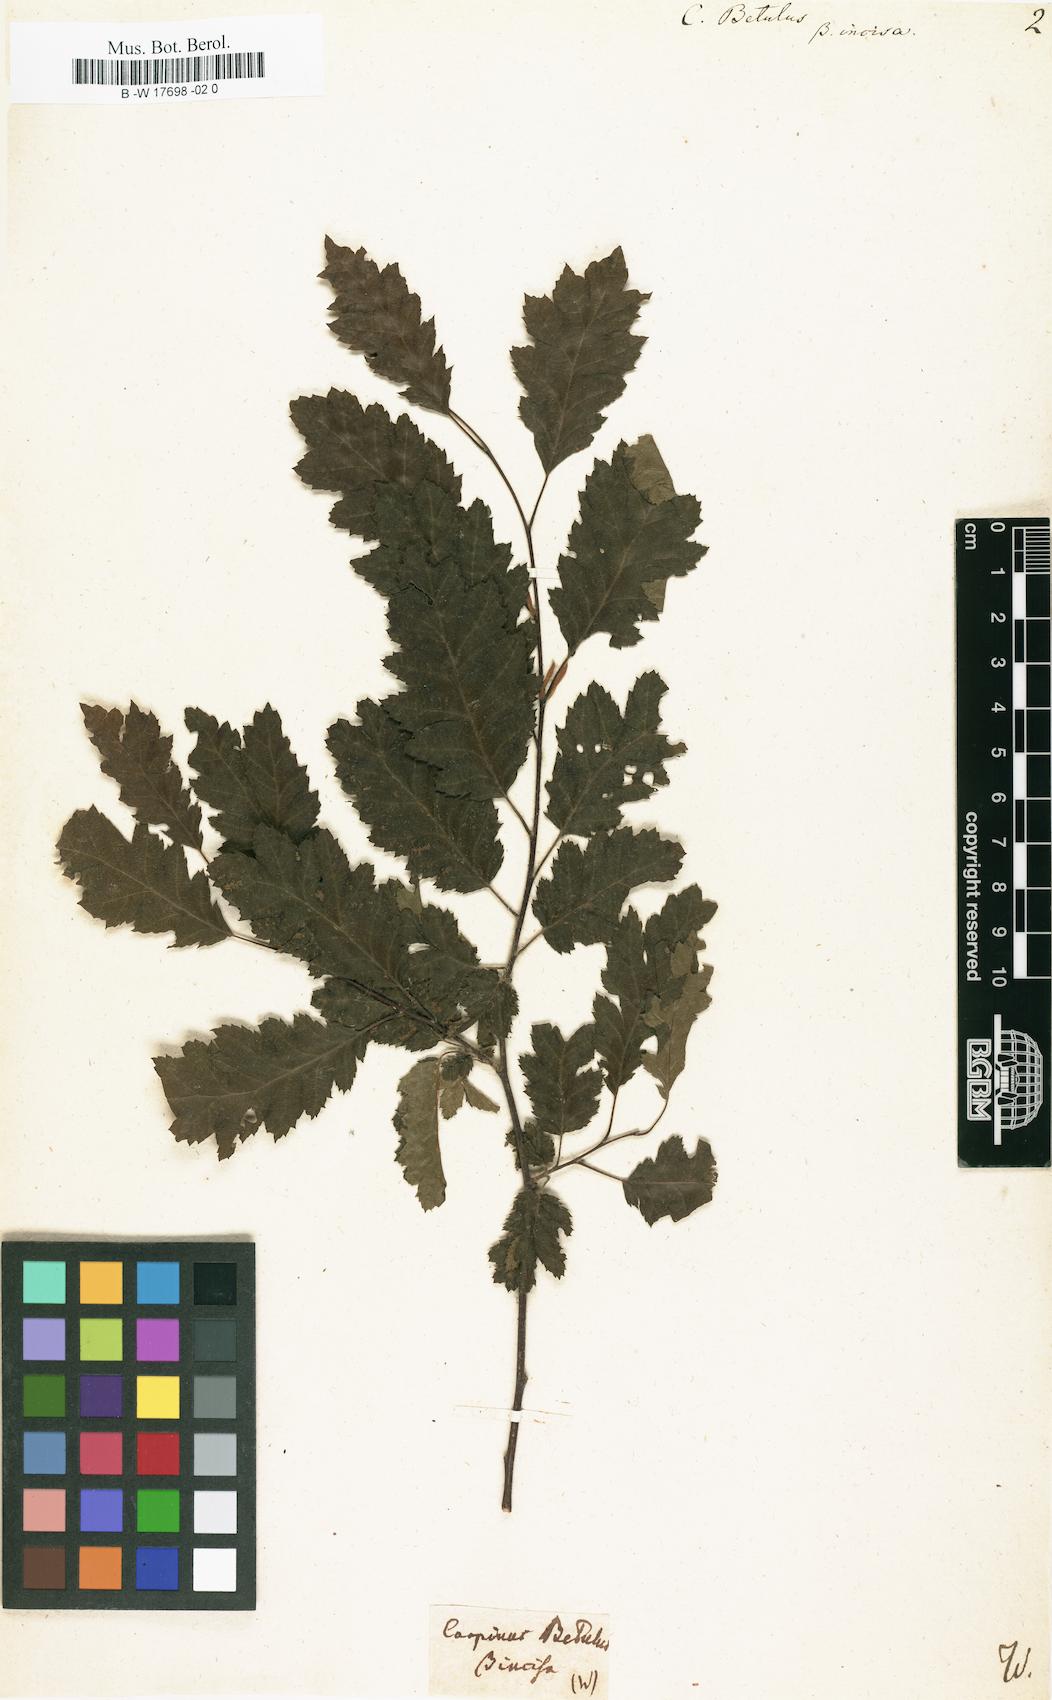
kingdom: Plantae
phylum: Tracheophyta
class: Magnoliopsida
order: Fagales
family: Betulaceae
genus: Carpinus
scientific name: Carpinus betulus
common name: Hornbeam
